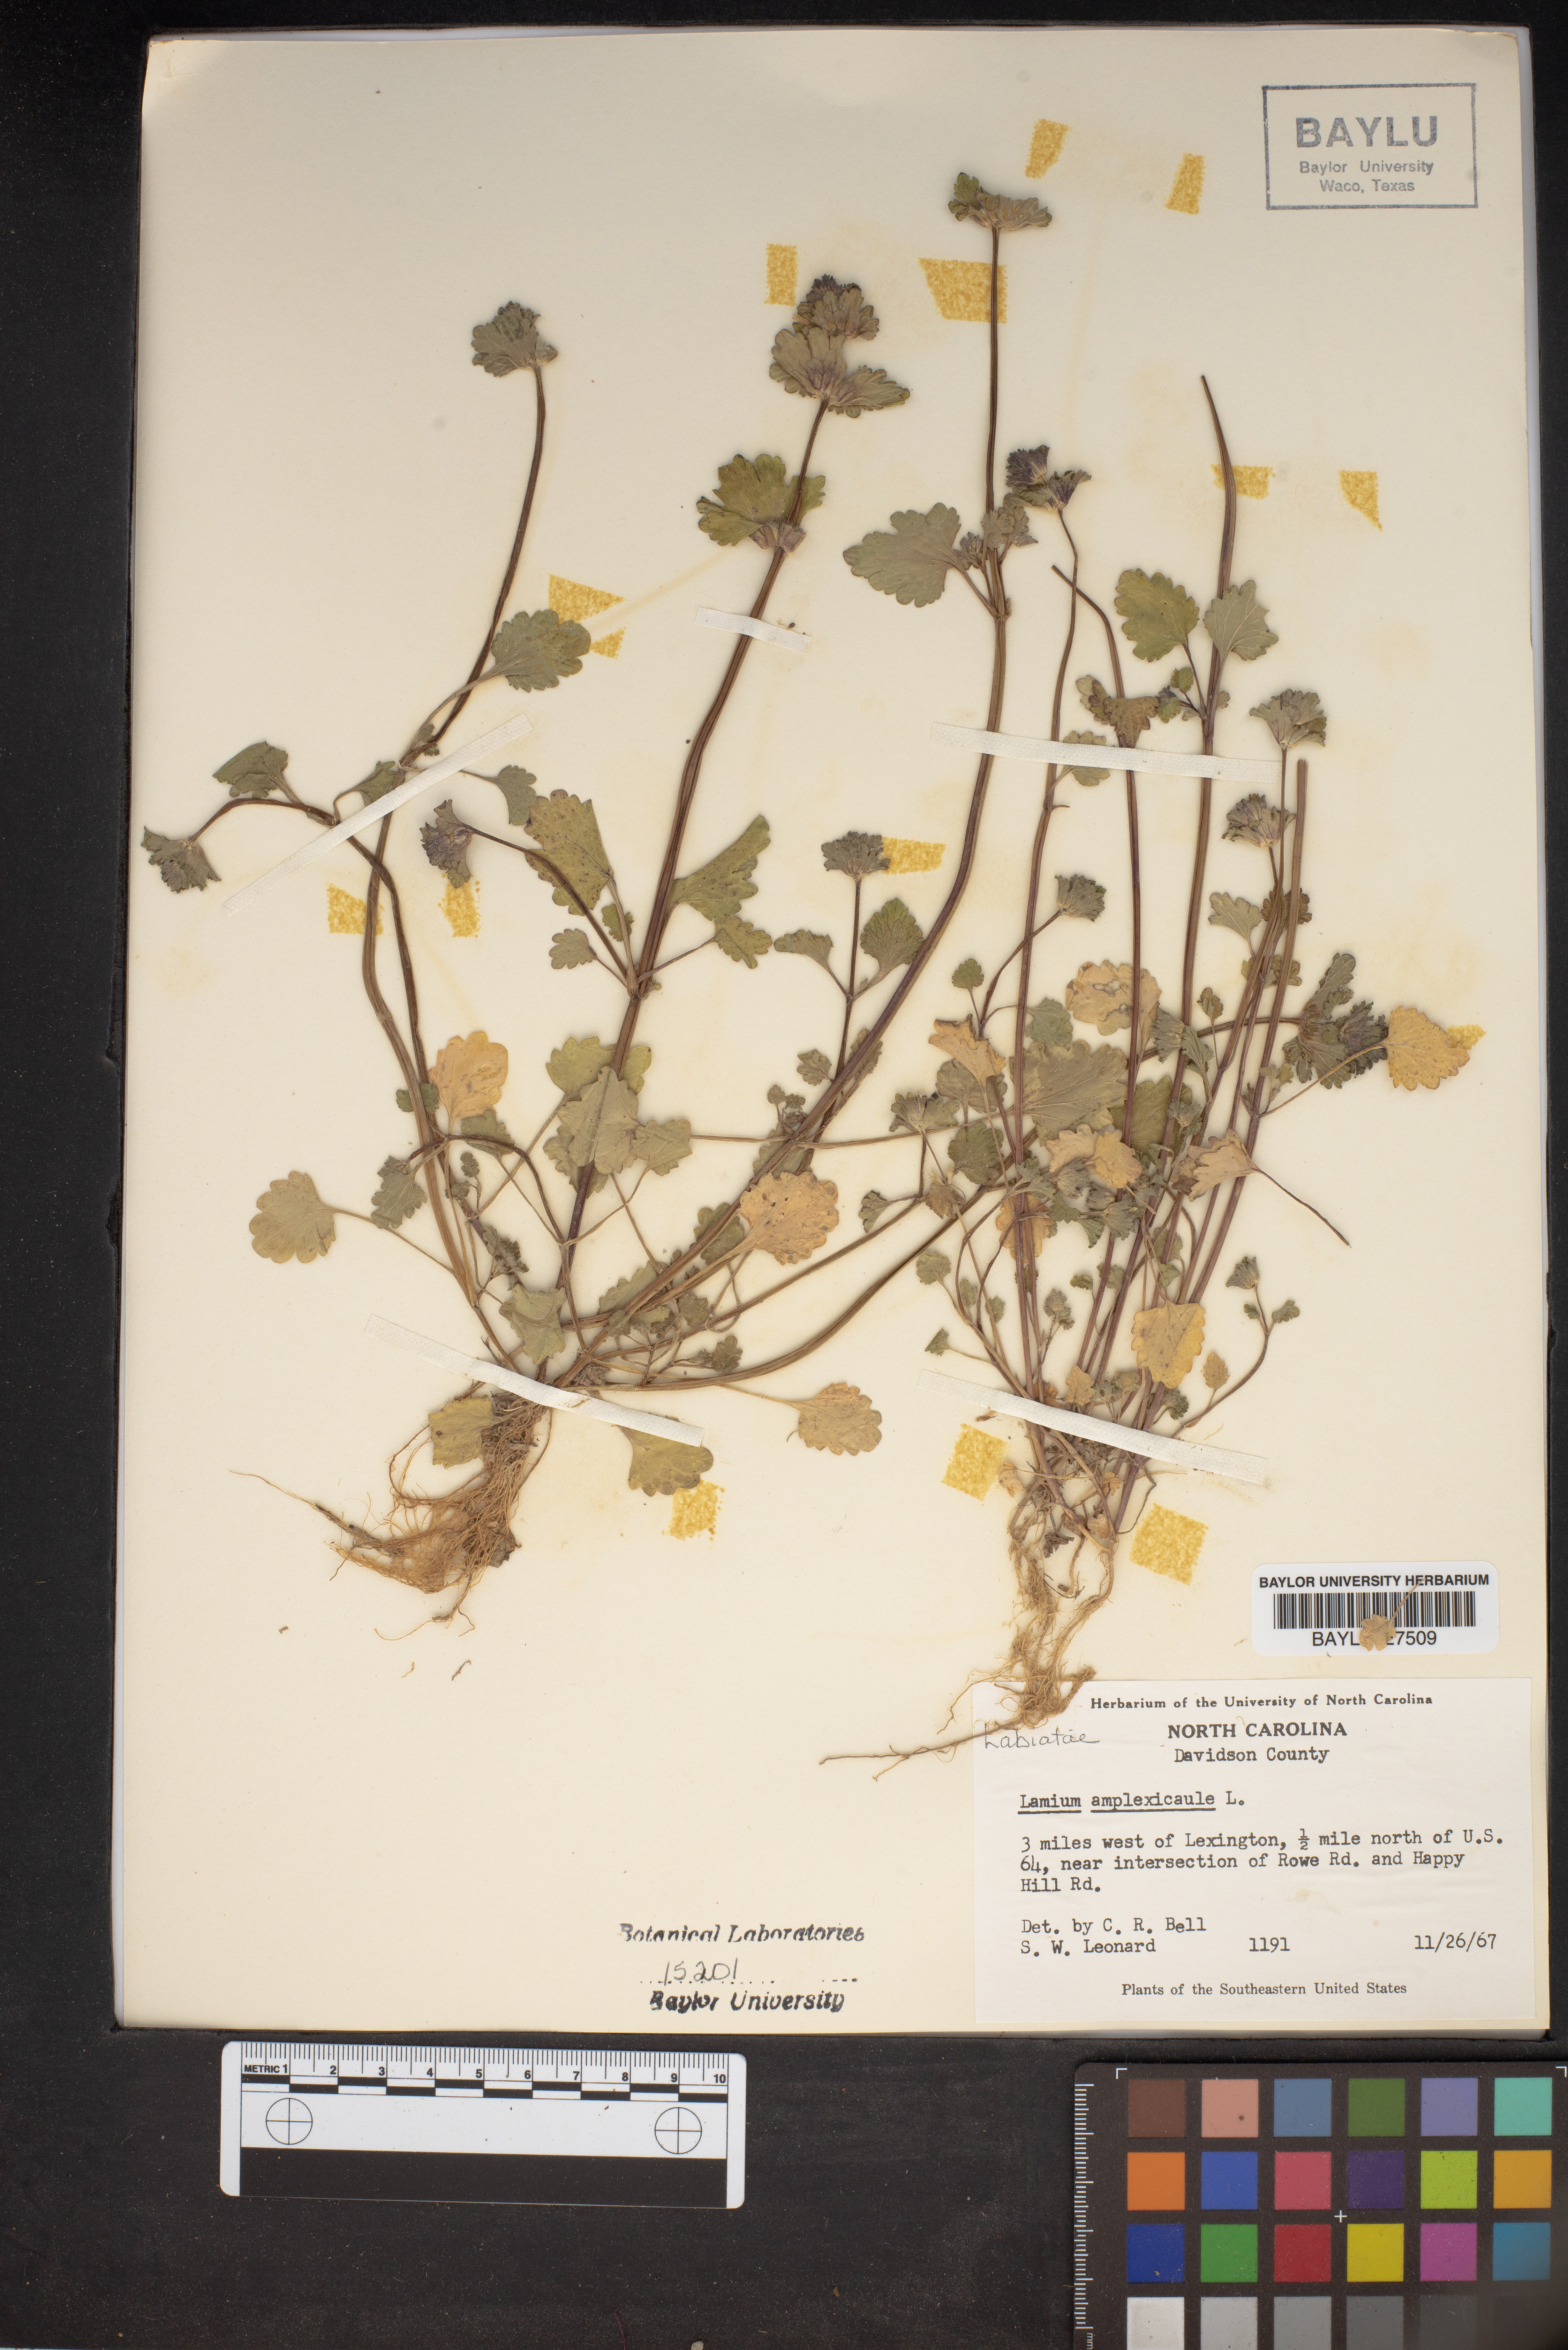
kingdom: Plantae
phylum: Tracheophyta
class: Magnoliopsida
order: Lamiales
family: Lamiaceae
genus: Lamium
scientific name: Lamium amplexicaule
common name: Henbit dead-nettle
